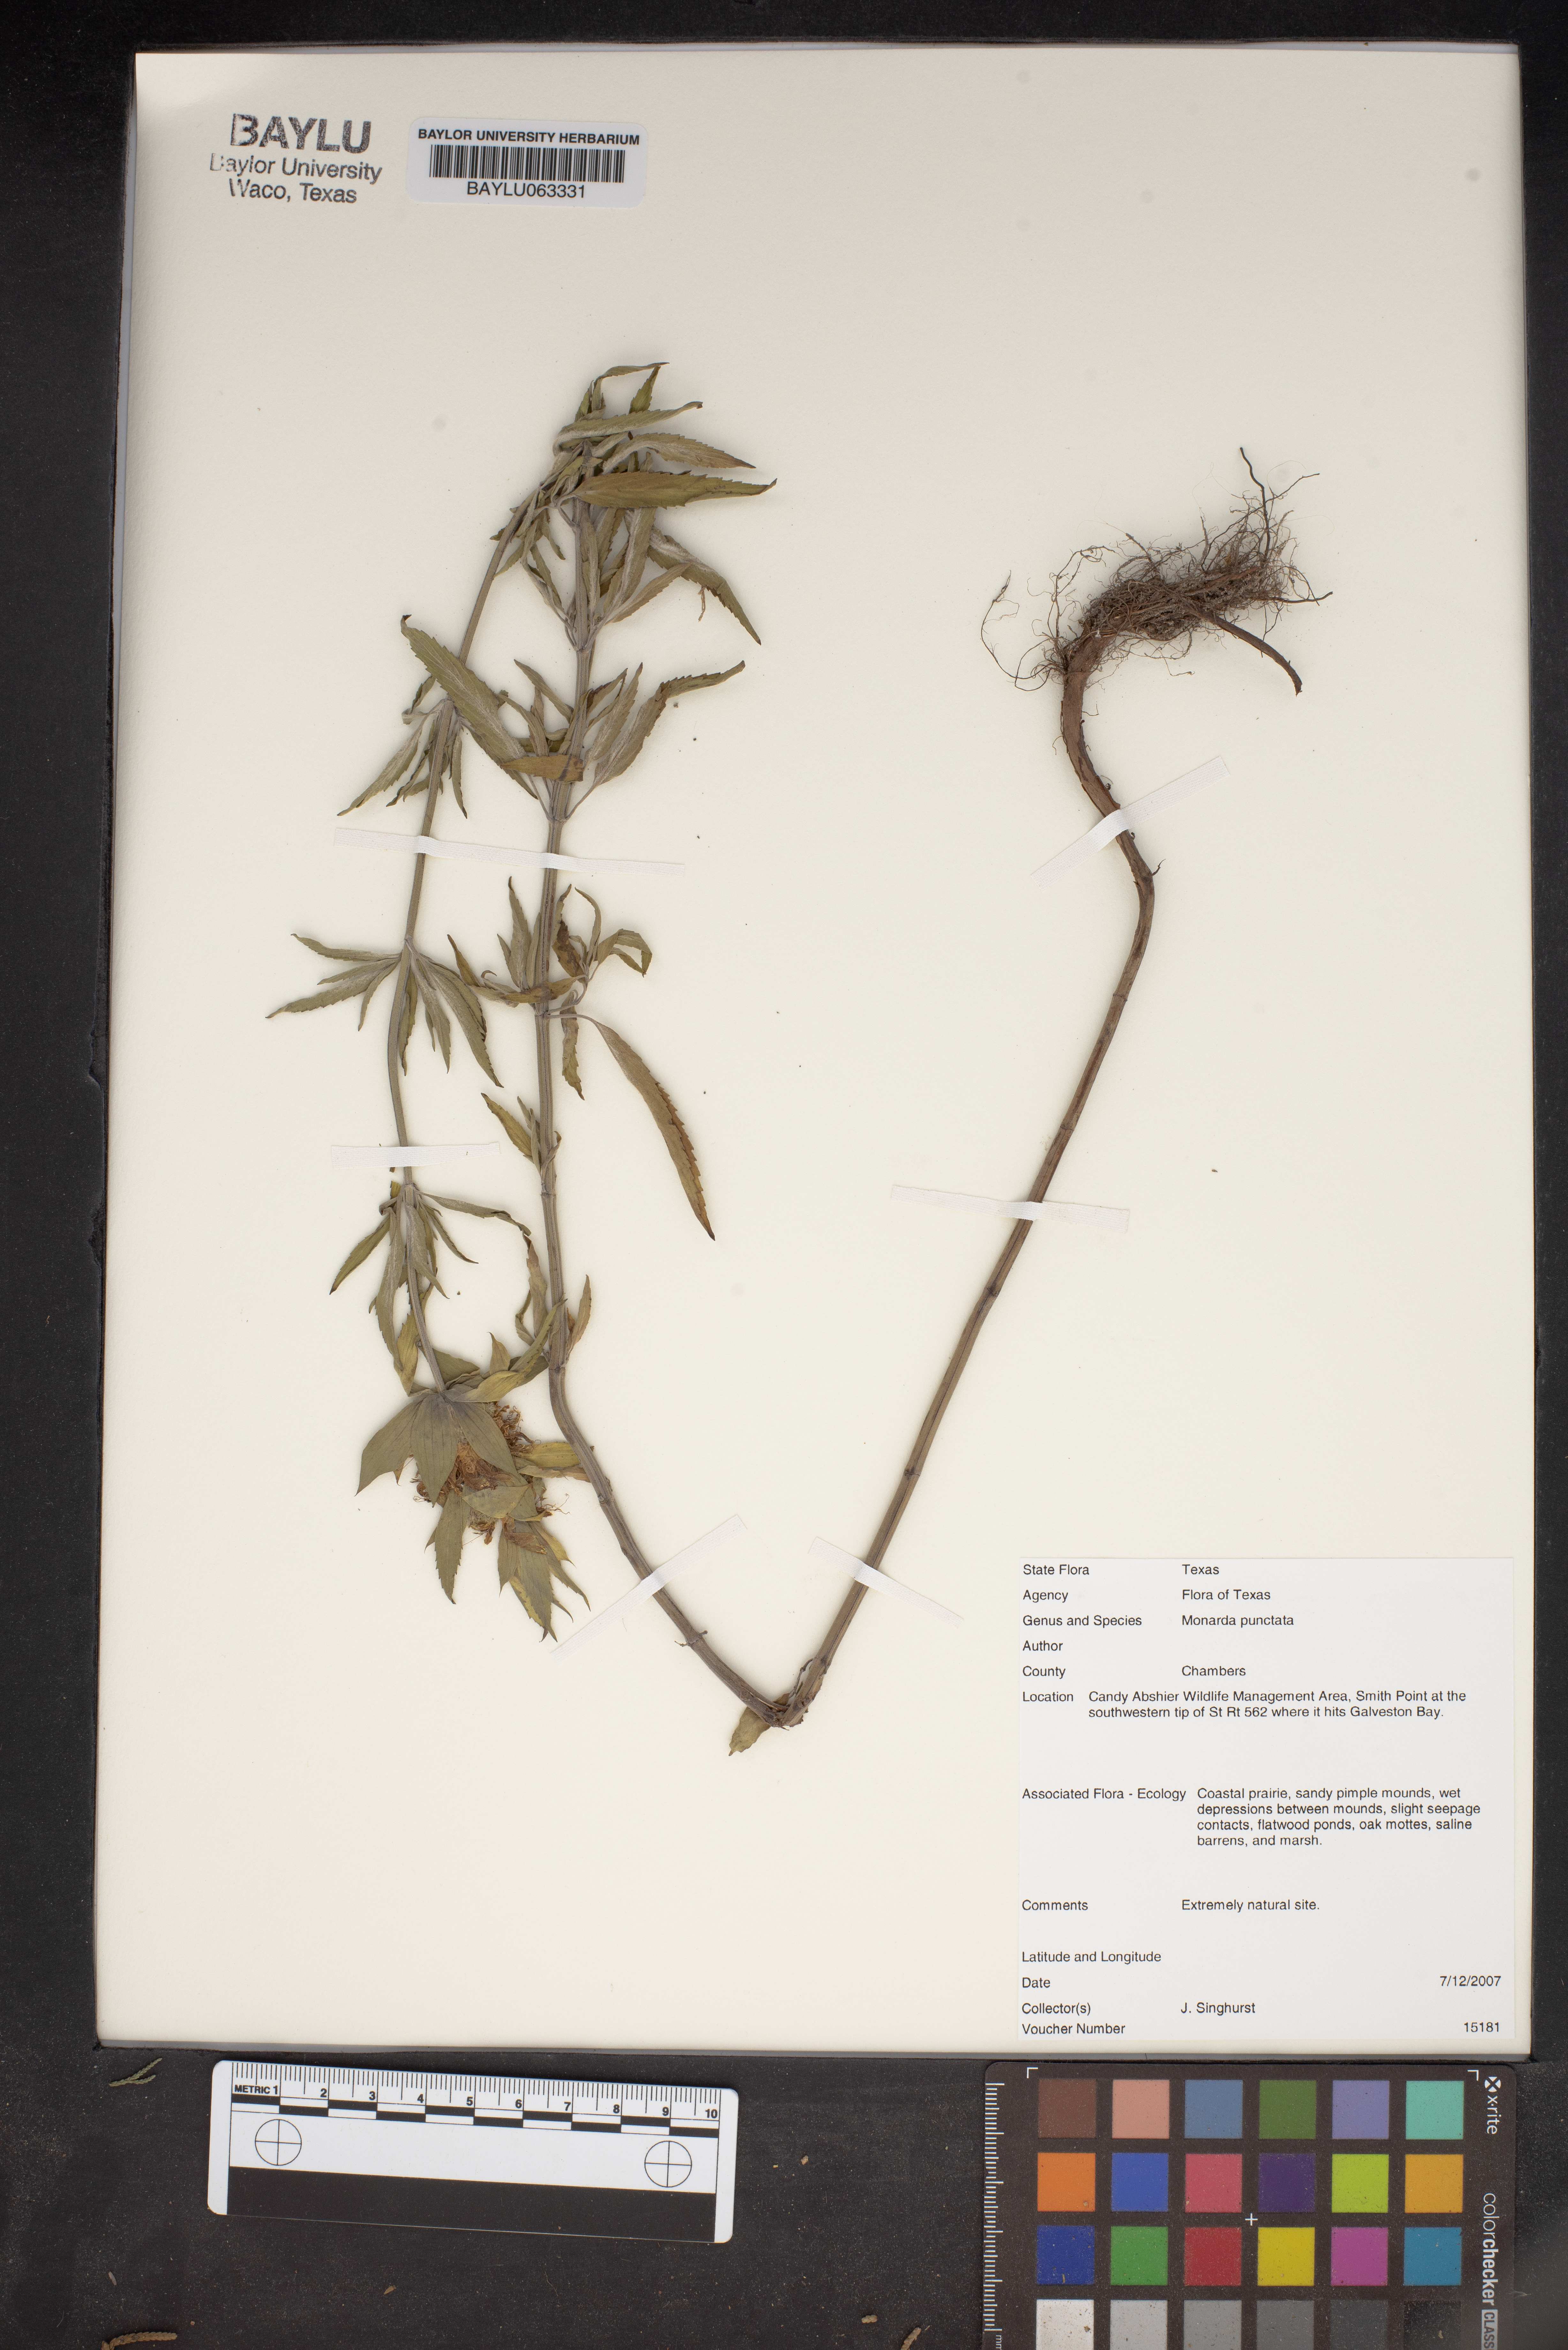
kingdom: Plantae
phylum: Tracheophyta
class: Magnoliopsida
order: Lamiales
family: Lamiaceae
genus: Monarda
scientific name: Monarda punctata
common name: Dotted monarda
